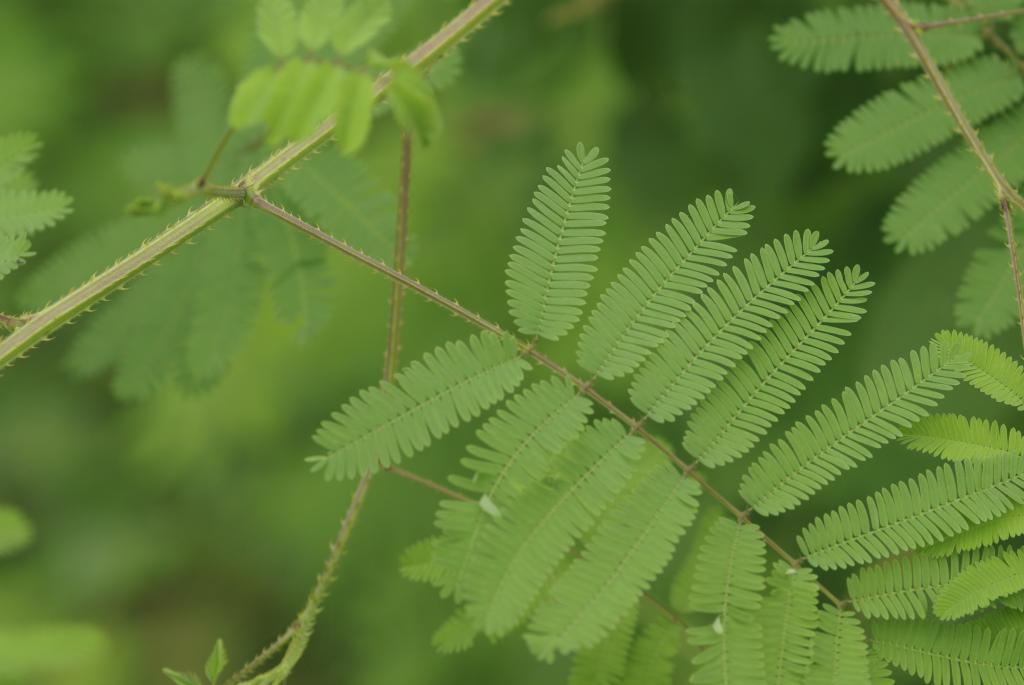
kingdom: Plantae
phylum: Tracheophyta
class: Magnoliopsida
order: Fabales
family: Fabaceae
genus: Mimosa
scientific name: Mimosa diplotricha
